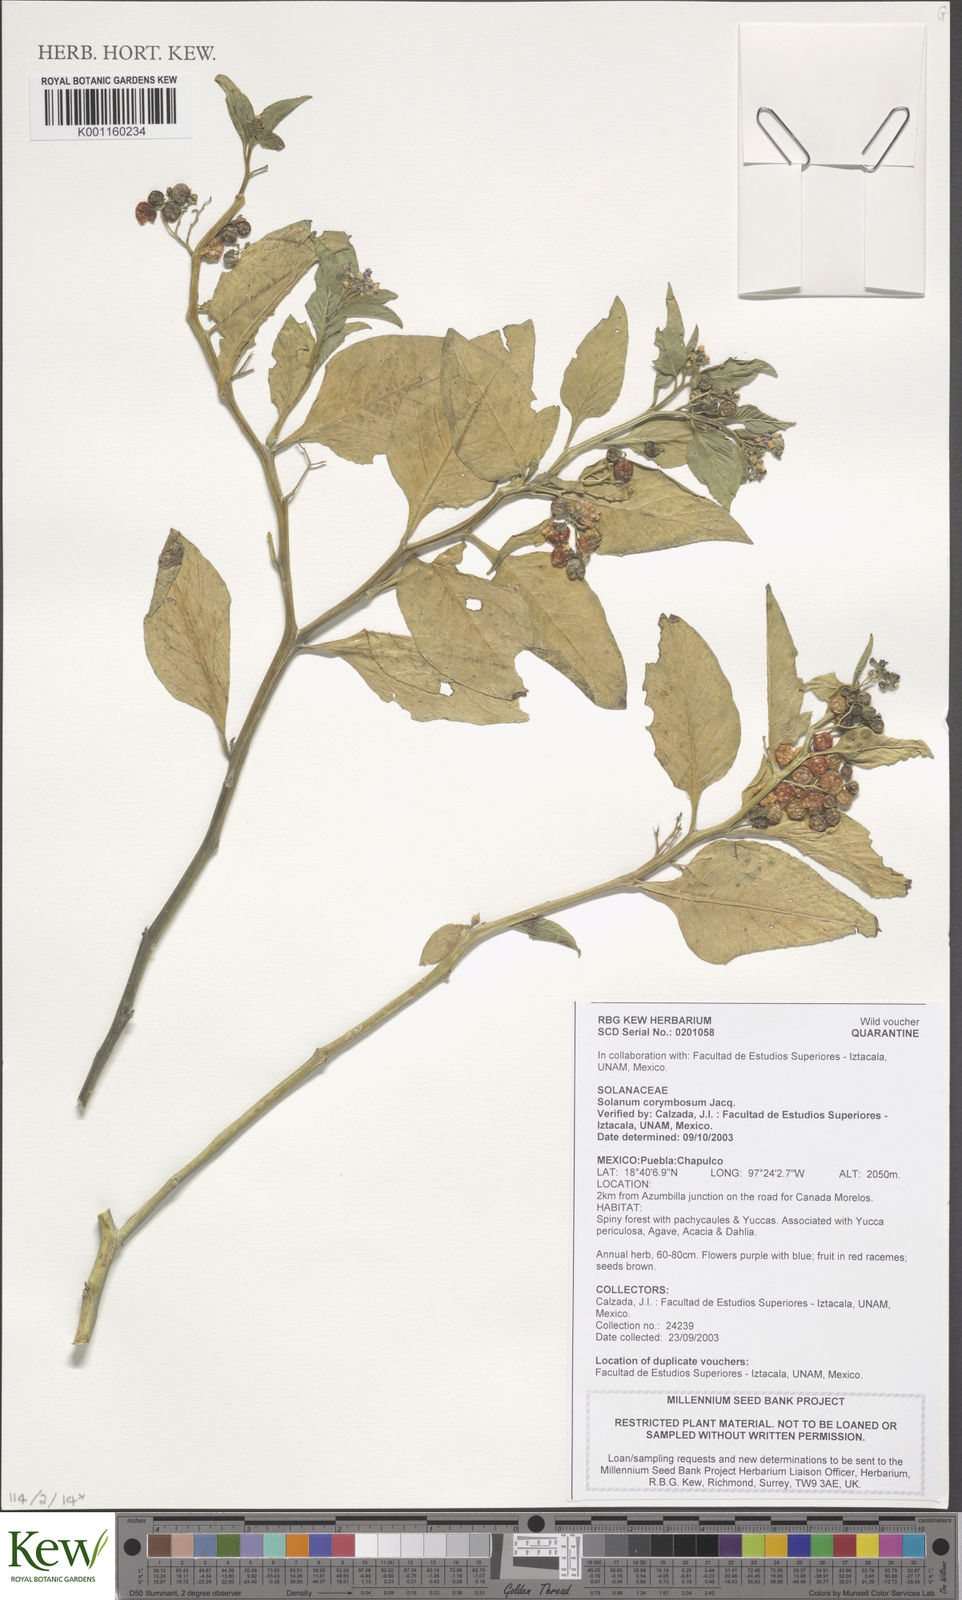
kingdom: Plantae
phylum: Tracheophyta
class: Magnoliopsida
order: Solanales
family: Solanaceae
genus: Solanum
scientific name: Solanum corymbosum
